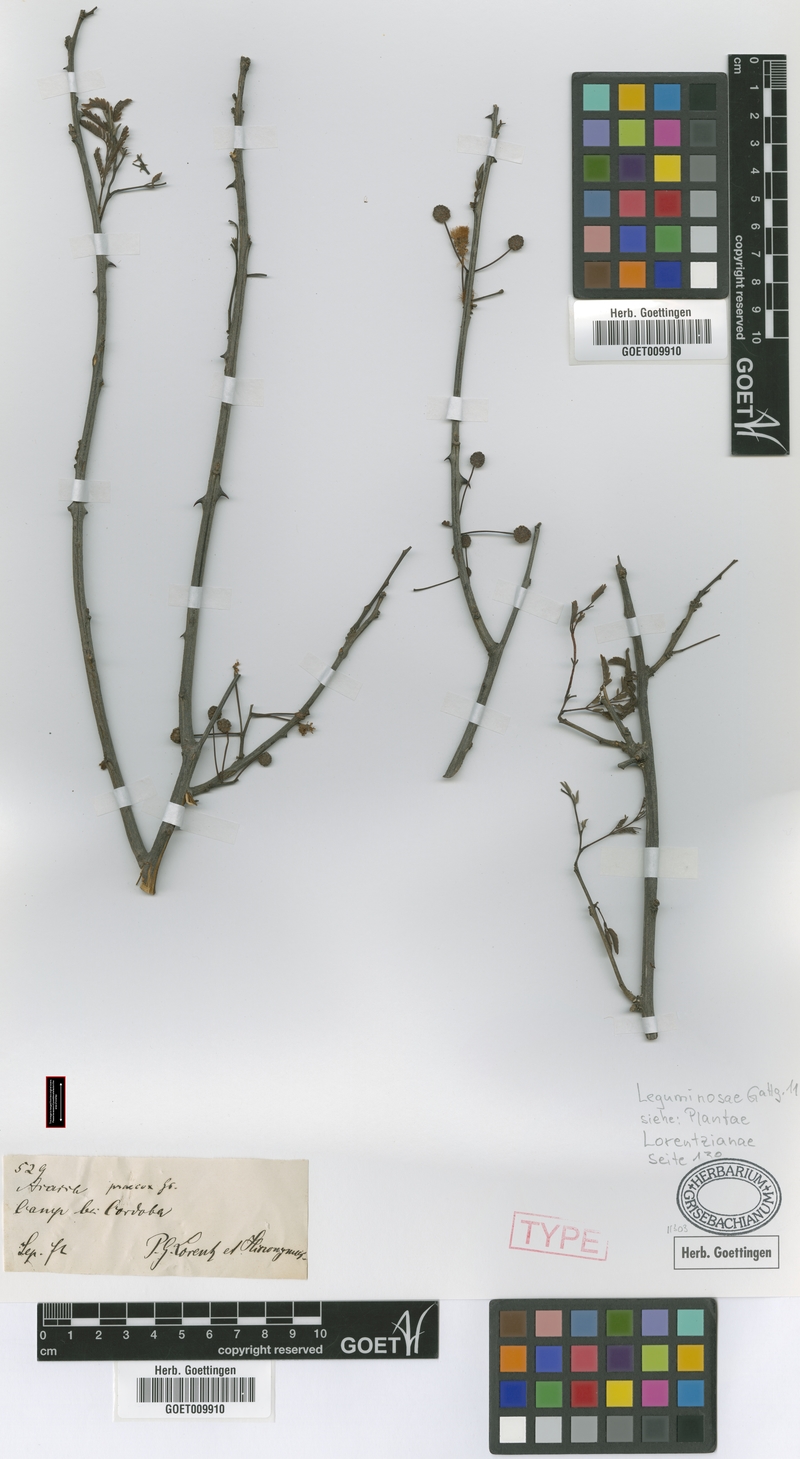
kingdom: Plantae
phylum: Tracheophyta
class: Magnoliopsida
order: Fabales
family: Fabaceae
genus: Senegalia
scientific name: Senegalia praecox
